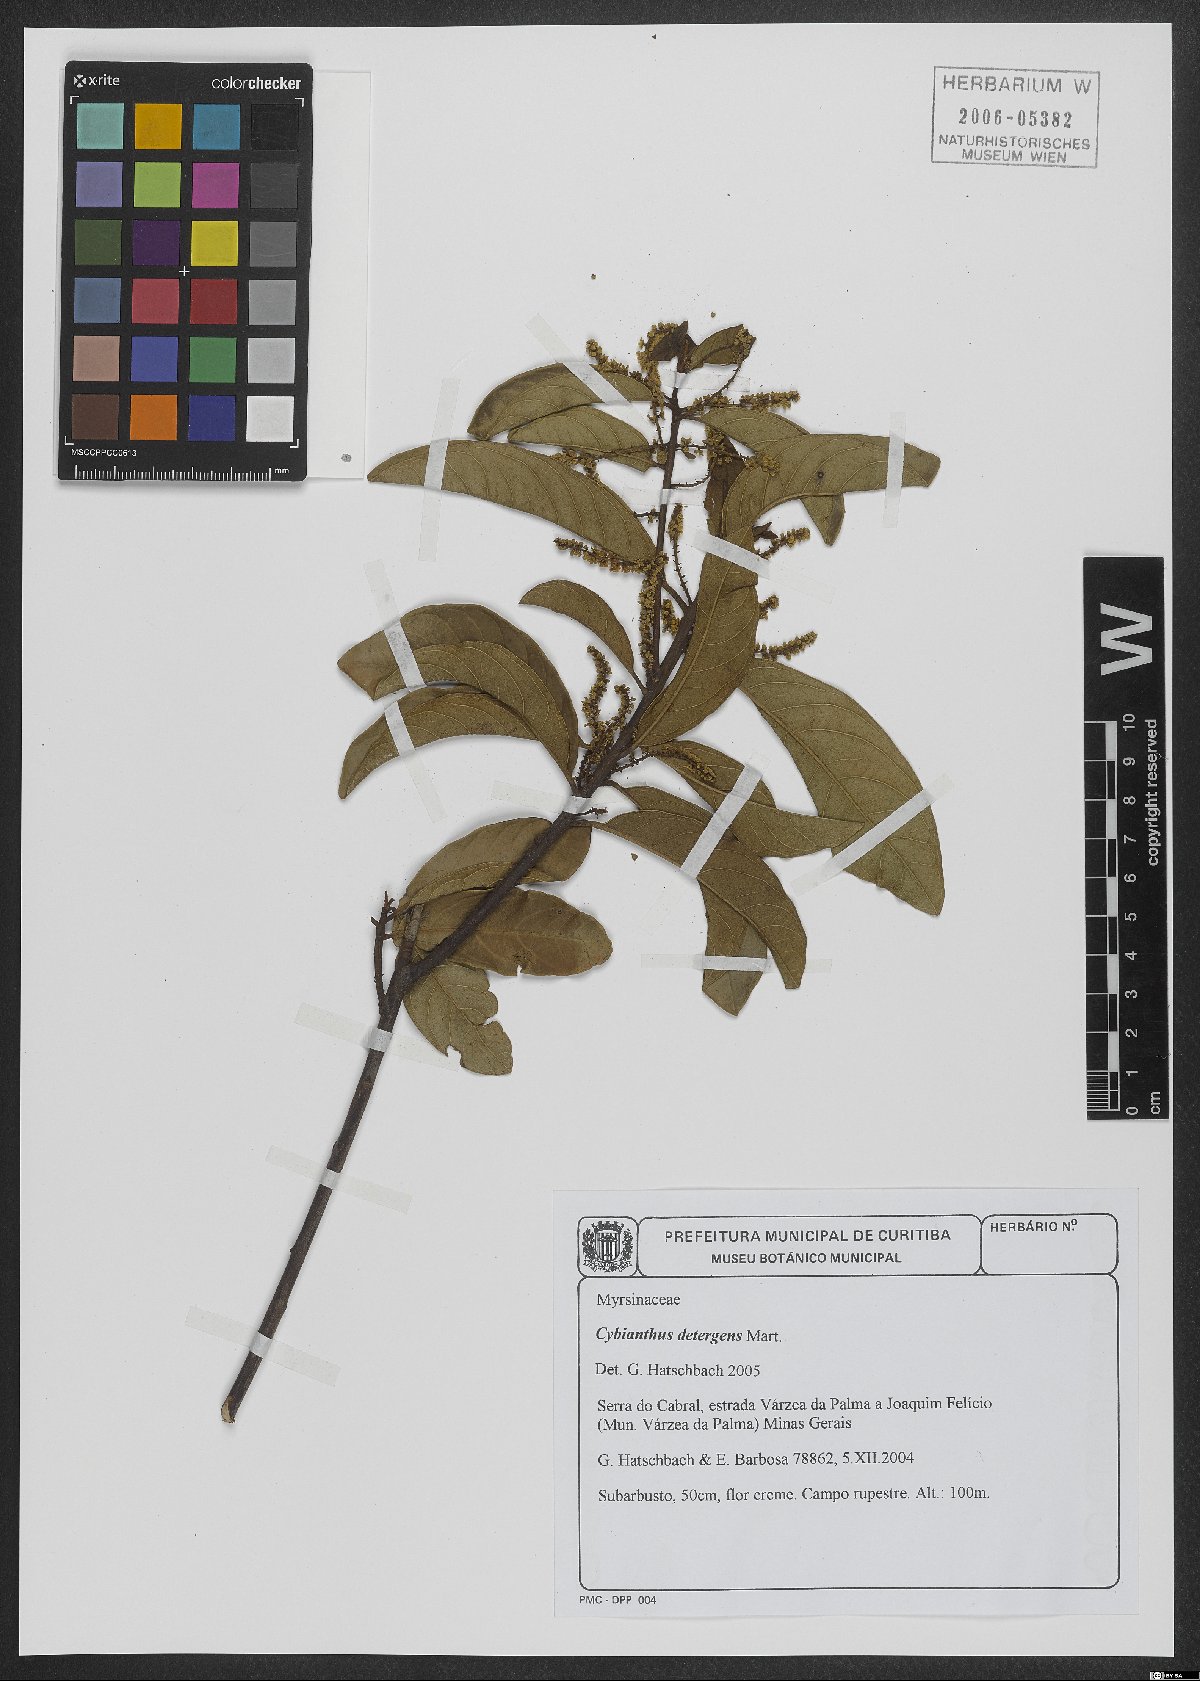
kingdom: Plantae
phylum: Tracheophyta
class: Magnoliopsida
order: Ericales
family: Primulaceae
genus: Cybianthus
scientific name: Cybianthus detergens
